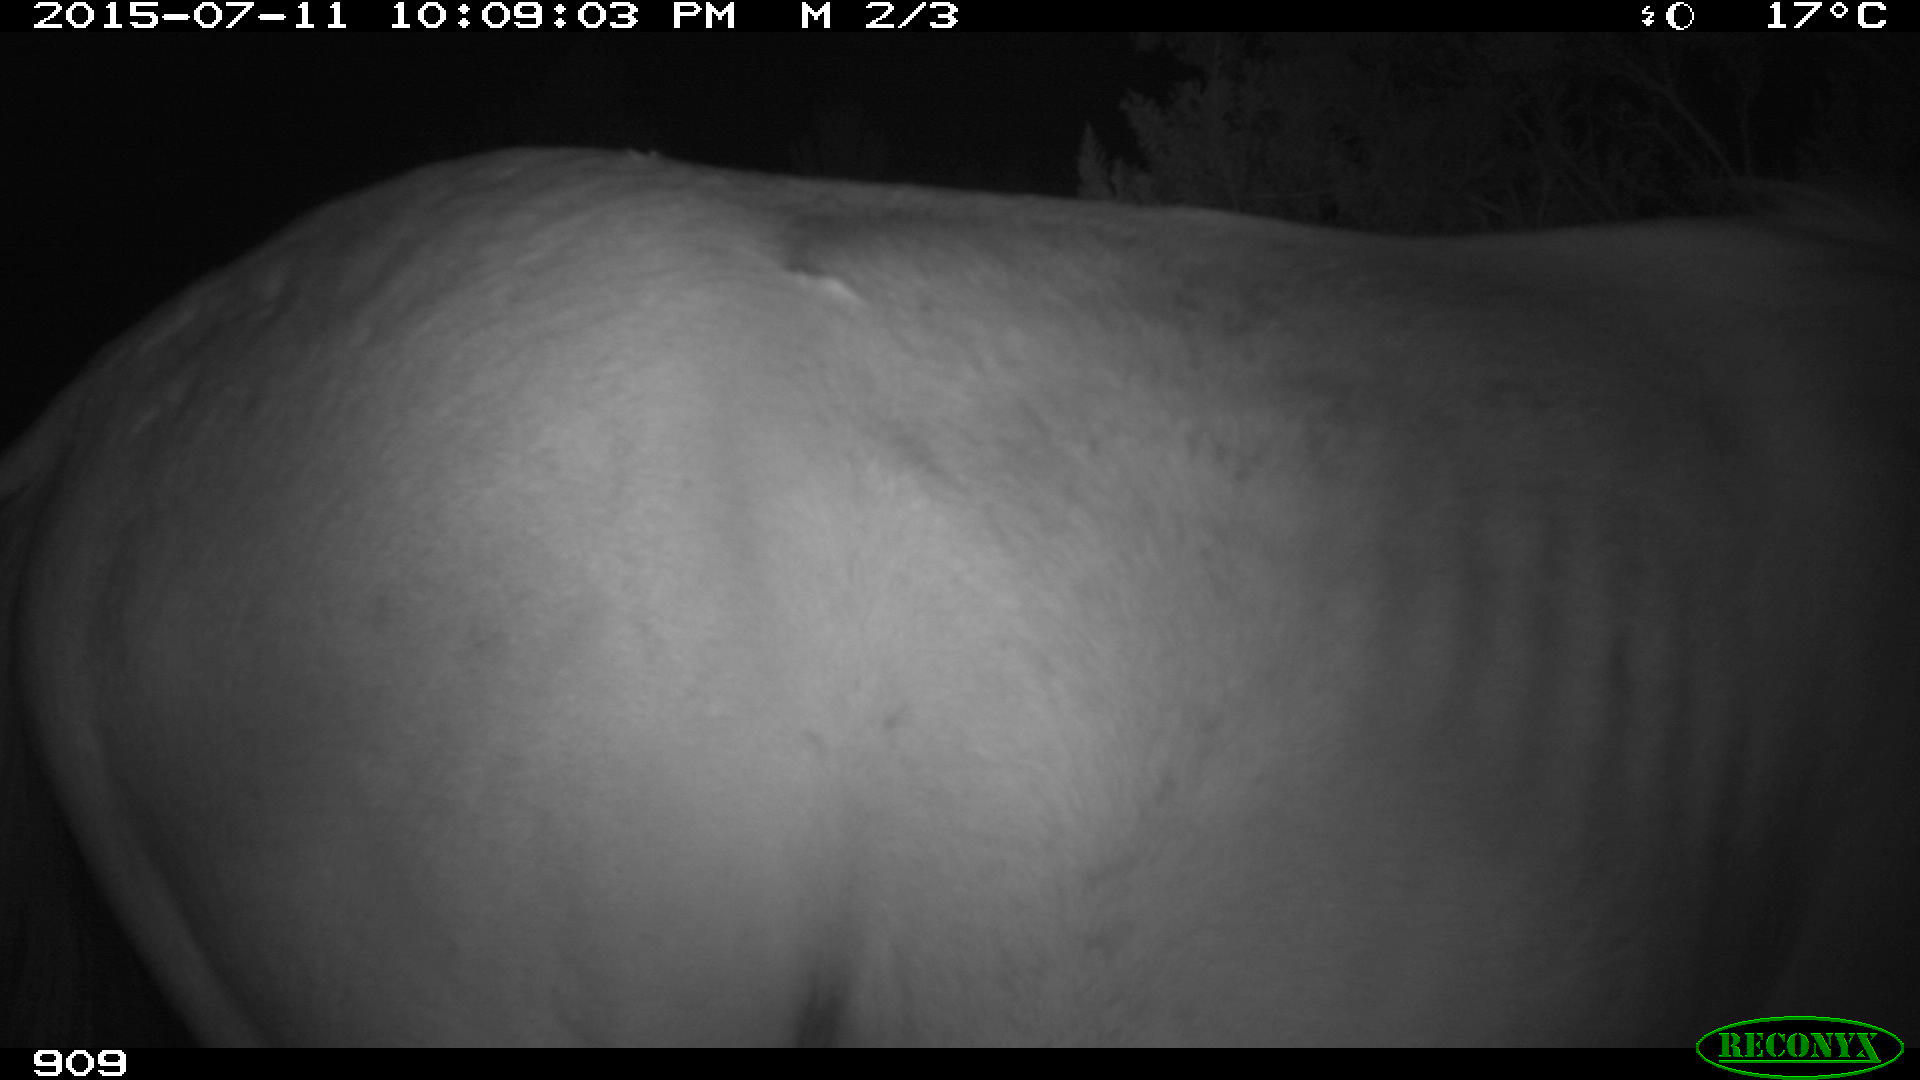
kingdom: Animalia
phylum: Chordata
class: Mammalia
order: Perissodactyla
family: Equidae
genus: Equus
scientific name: Equus caballus
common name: Horse
